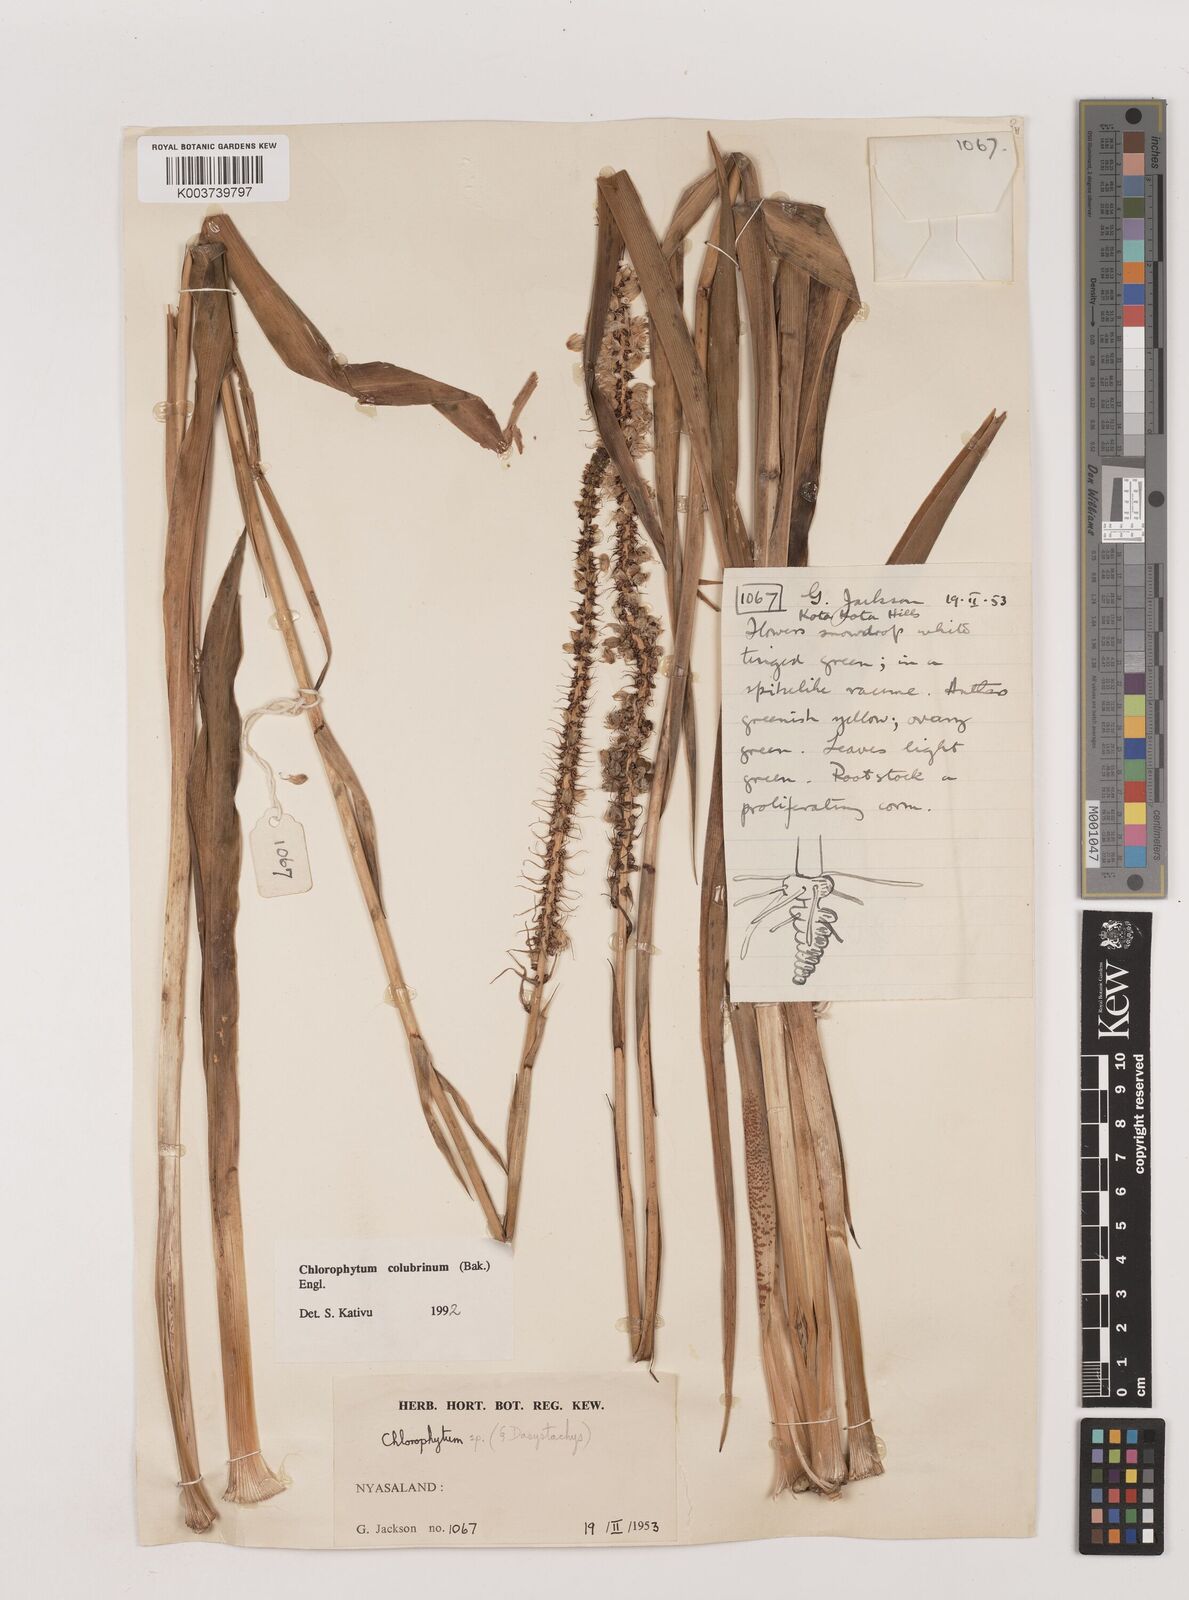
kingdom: Plantae
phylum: Tracheophyta
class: Liliopsida
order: Asparagales
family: Asparagaceae
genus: Chlorophytum
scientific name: Chlorophytum colubrinum
